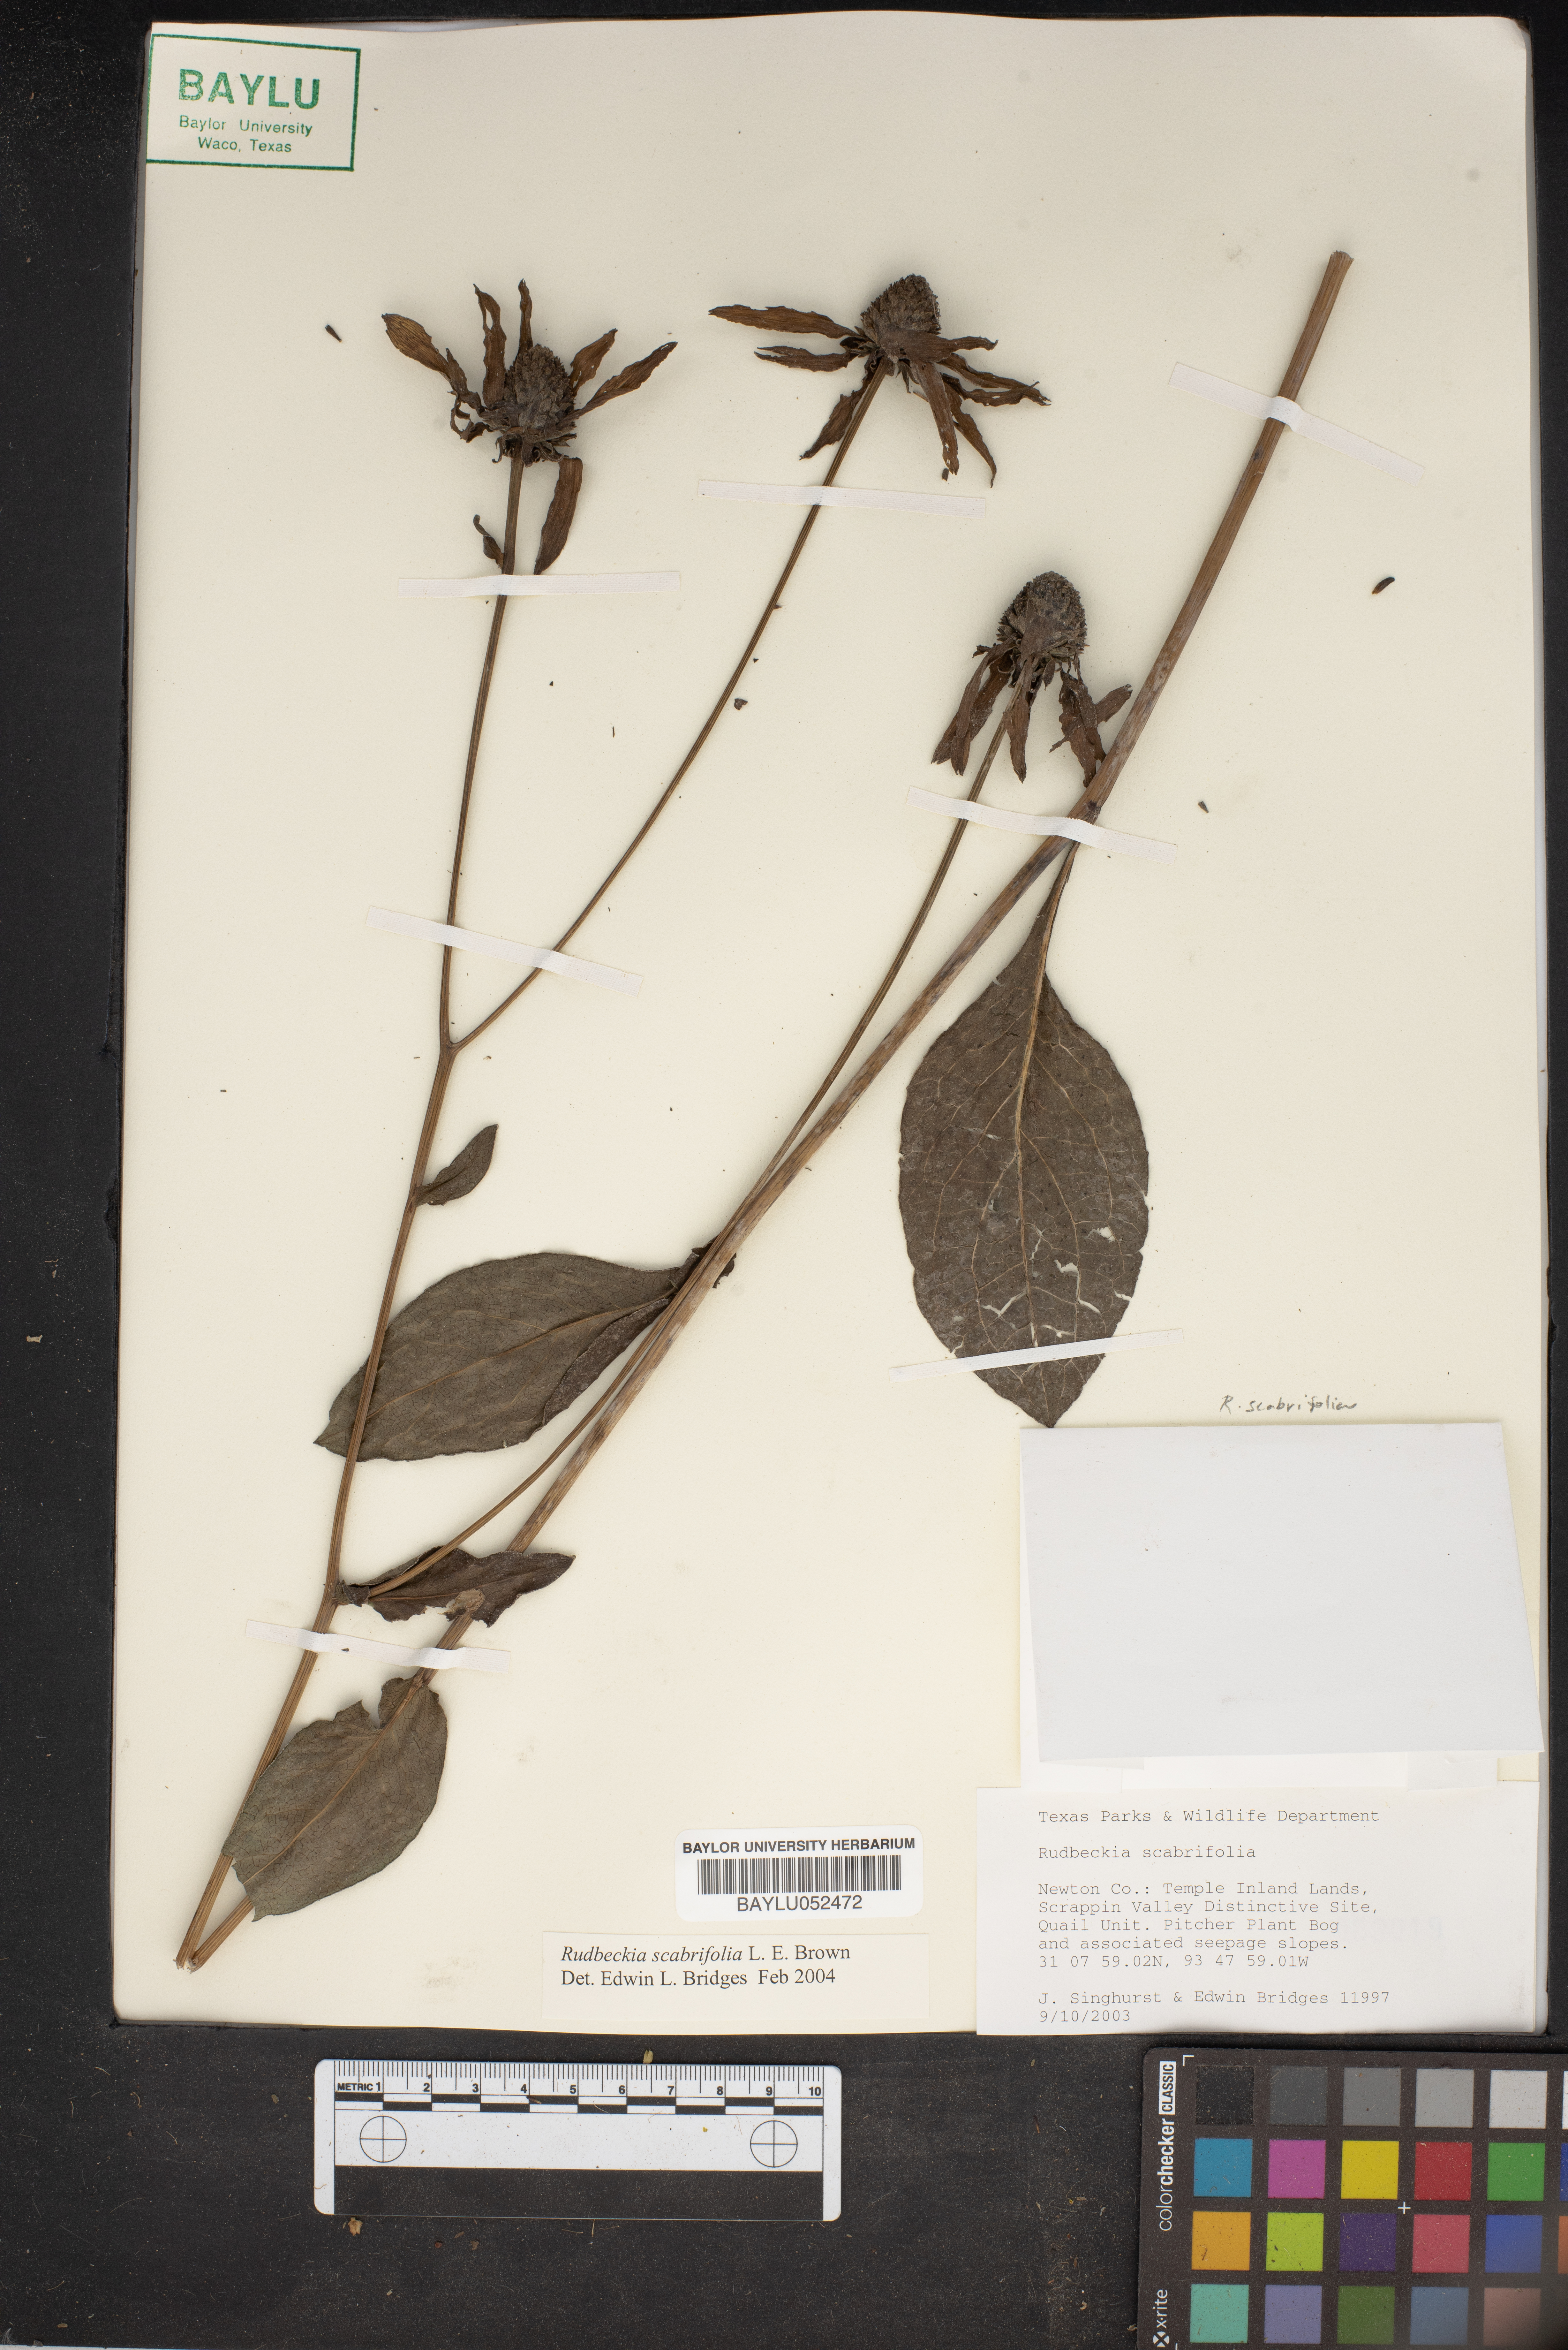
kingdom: Plantae
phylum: Tracheophyta
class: Magnoliopsida
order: Asterales
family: Asteraceae
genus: Rudbeckia
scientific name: Rudbeckia scabrifolia
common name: Rough-leaf coneflower
